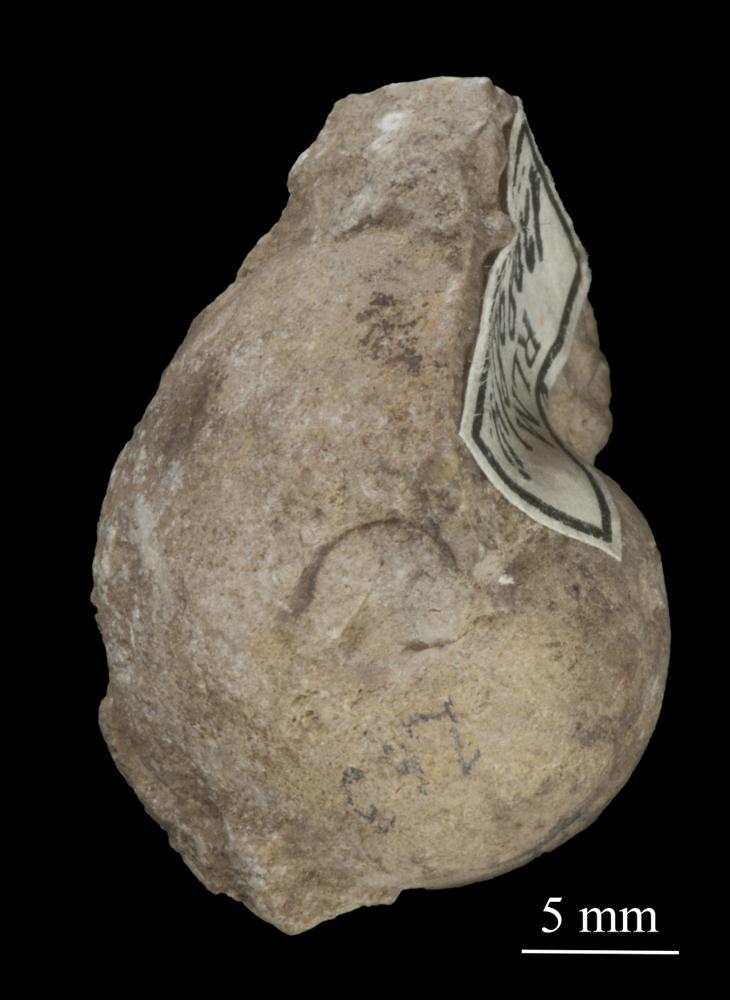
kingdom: Animalia
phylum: Mollusca
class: Gastropoda
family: Bellerophontidae
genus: Cymbularia
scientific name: Cymbularia Bellerophon cultrijugata
